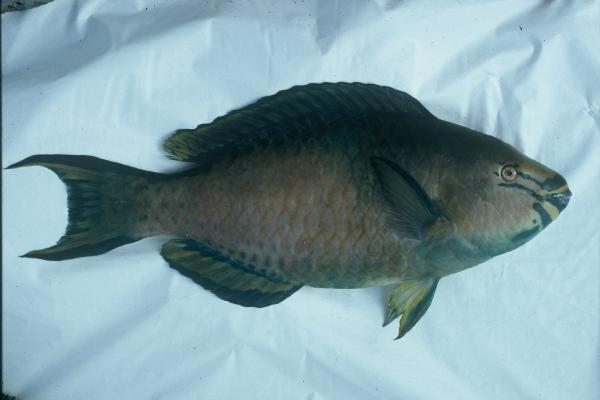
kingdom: Animalia
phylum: Chordata
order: Perciformes
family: Scaridae
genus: Scarus
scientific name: Scarus tricolor
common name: Tricolour parrotfish
